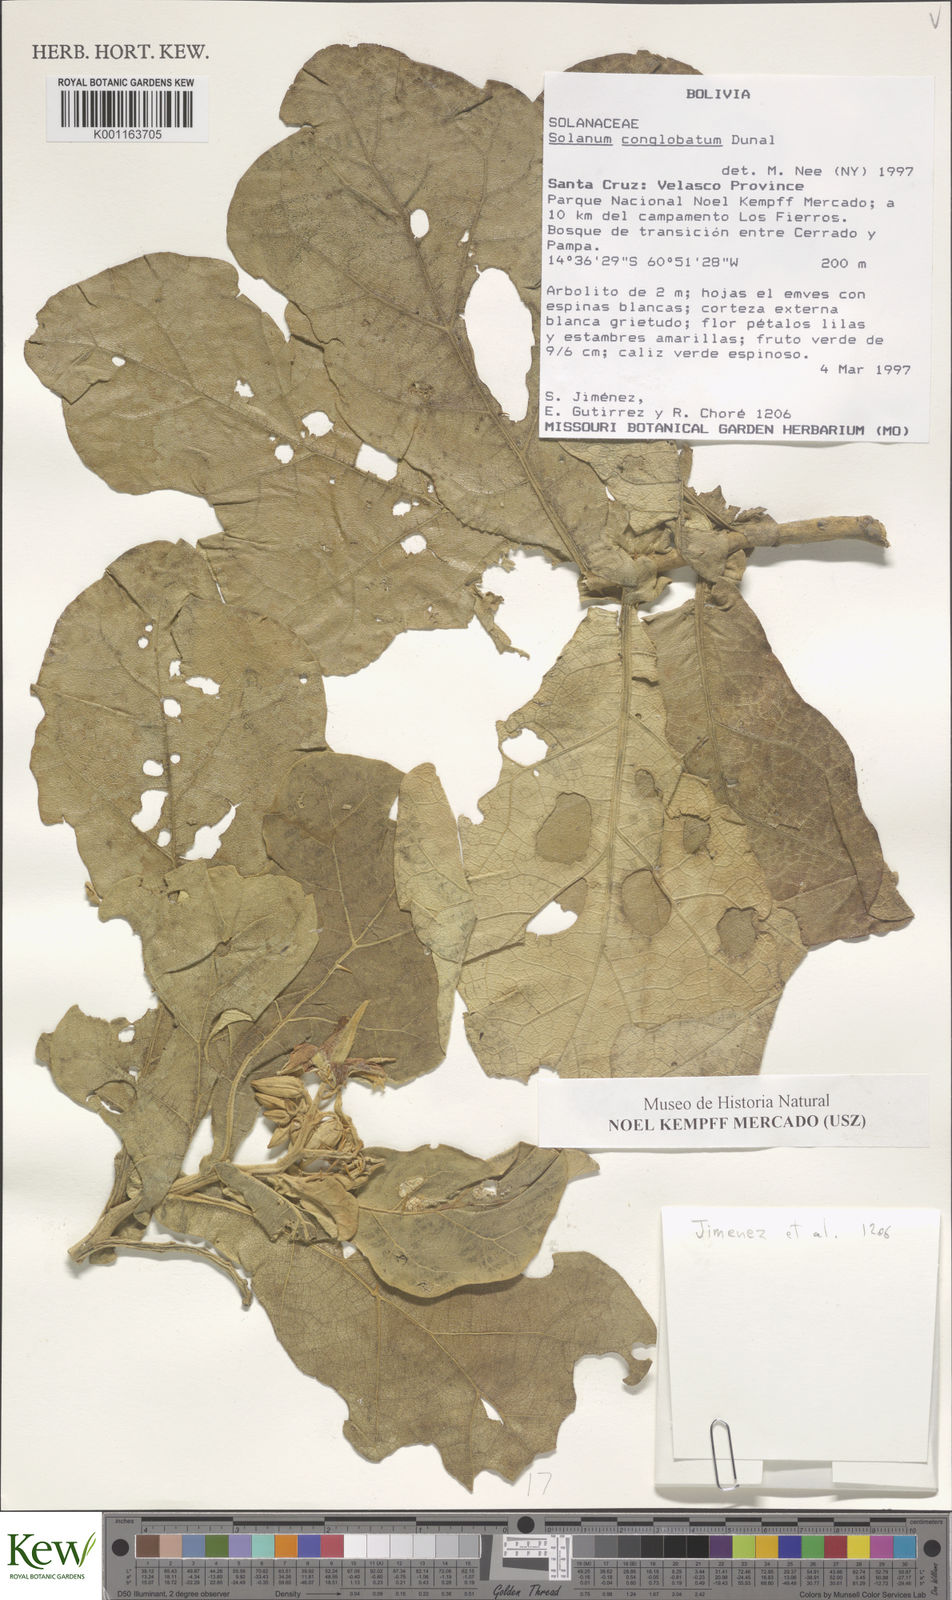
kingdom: Plantae
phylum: Tracheophyta
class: Magnoliopsida
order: Solanales
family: Solanaceae
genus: Solanum
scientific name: Solanum conglobatum
